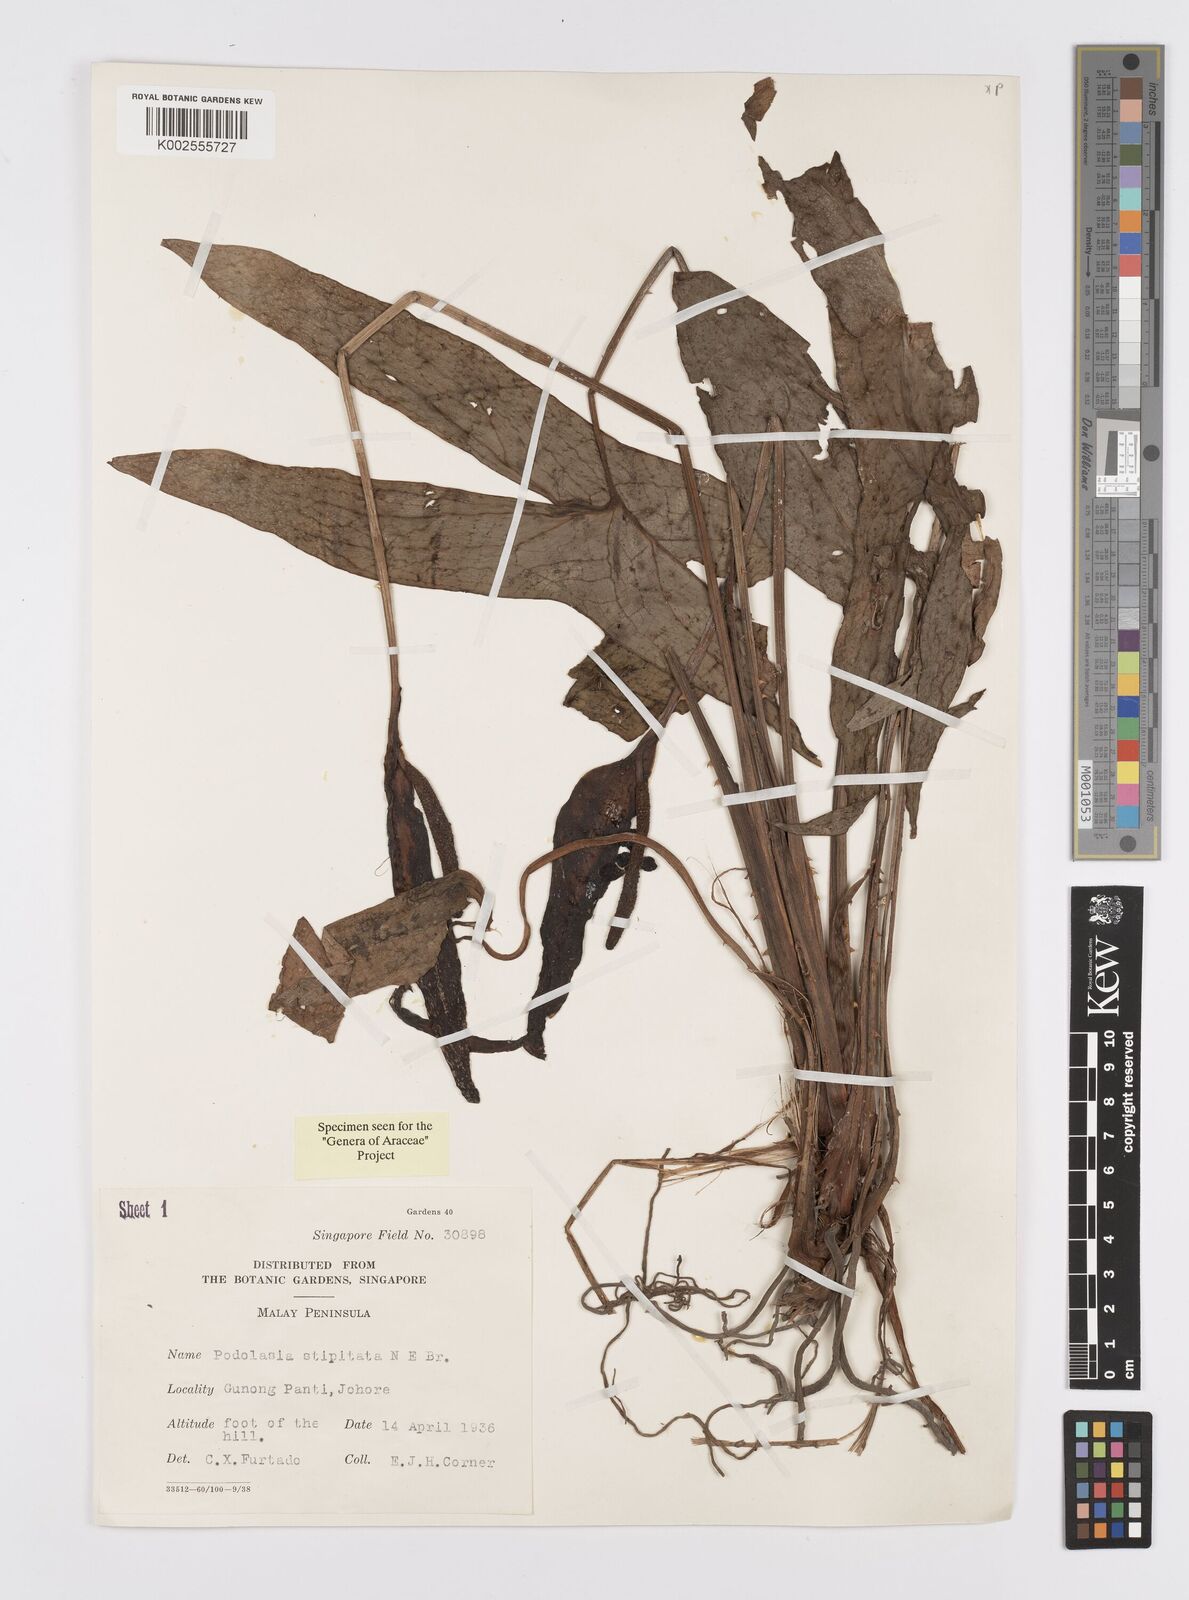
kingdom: Plantae
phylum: Tracheophyta
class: Liliopsida
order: Alismatales
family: Araceae
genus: Podolasia
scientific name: Podolasia stipitata
